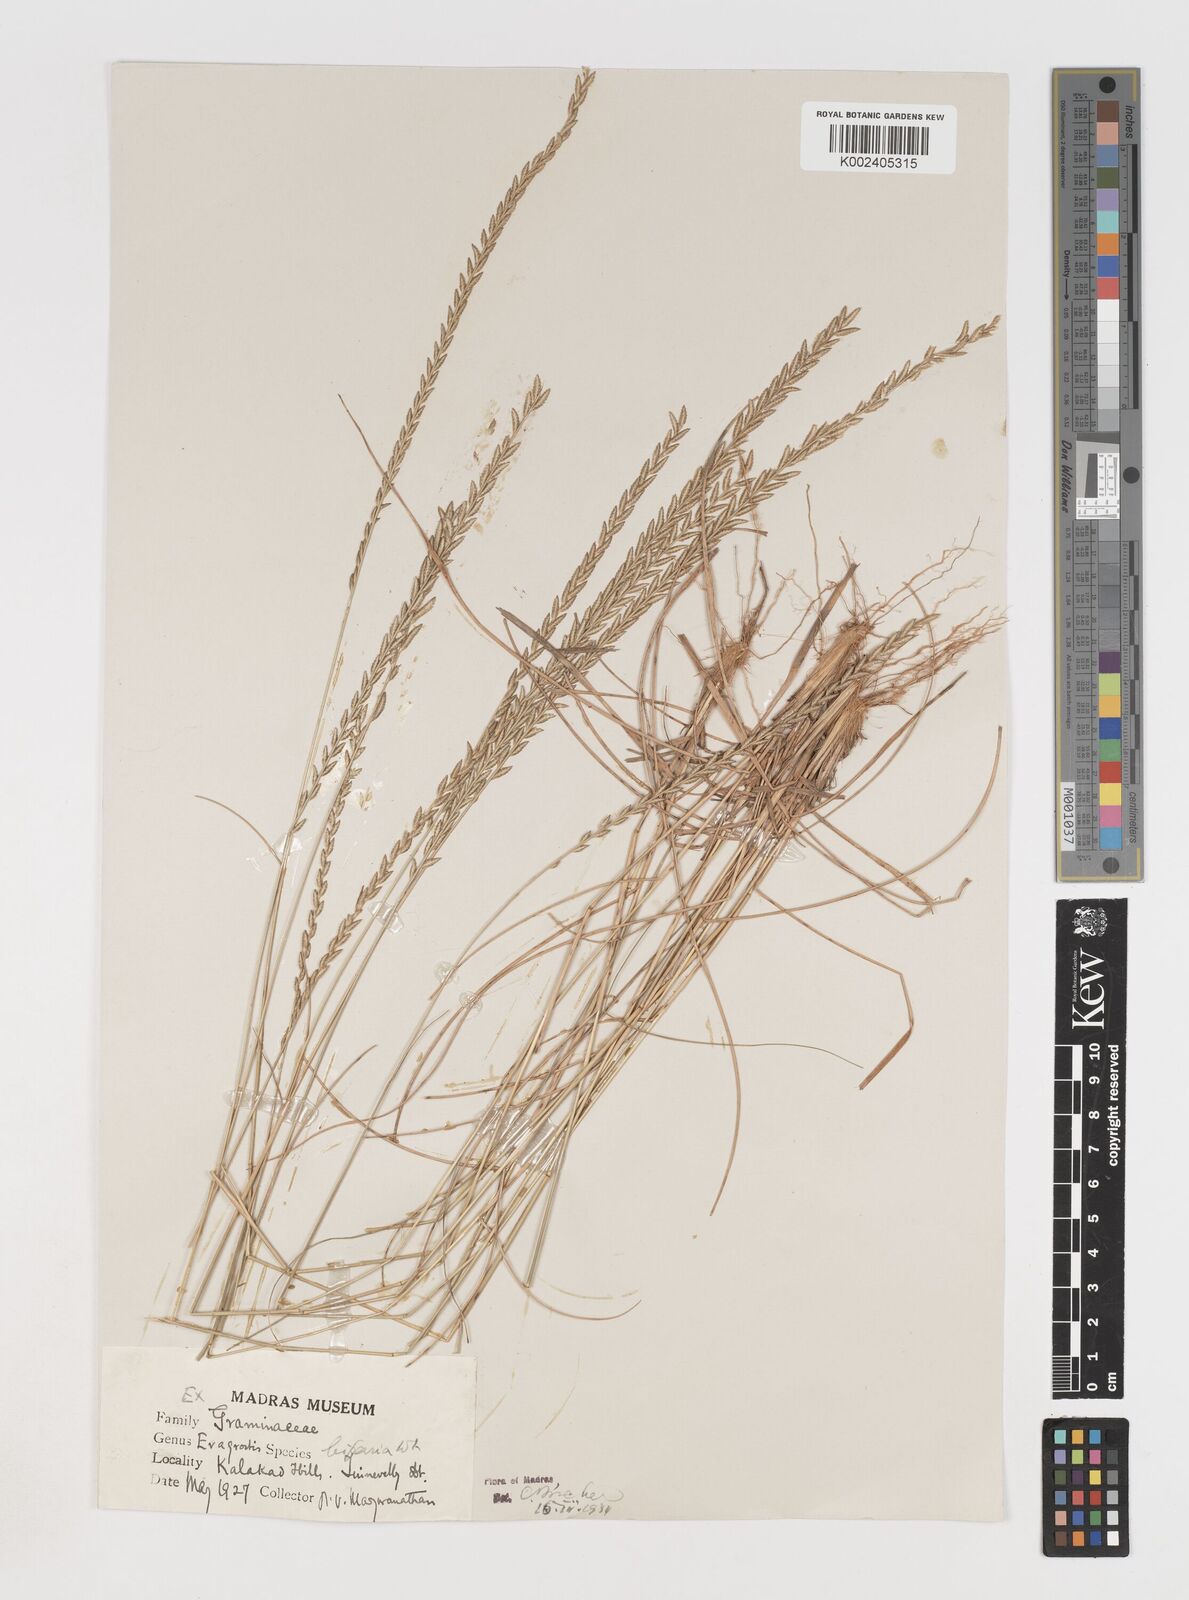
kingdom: Plantae
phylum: Tracheophyta
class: Liliopsida
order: Poales
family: Poaceae
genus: Eragrostiella
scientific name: Eragrostiella bifaria
